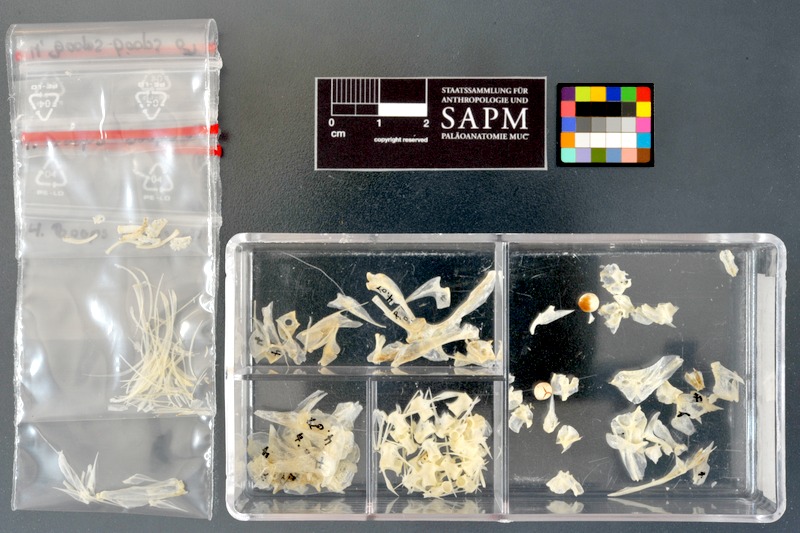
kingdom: Animalia
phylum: Chordata
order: Perciformes
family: Sparidae
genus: Boops
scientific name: Boops boops
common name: Bogue
